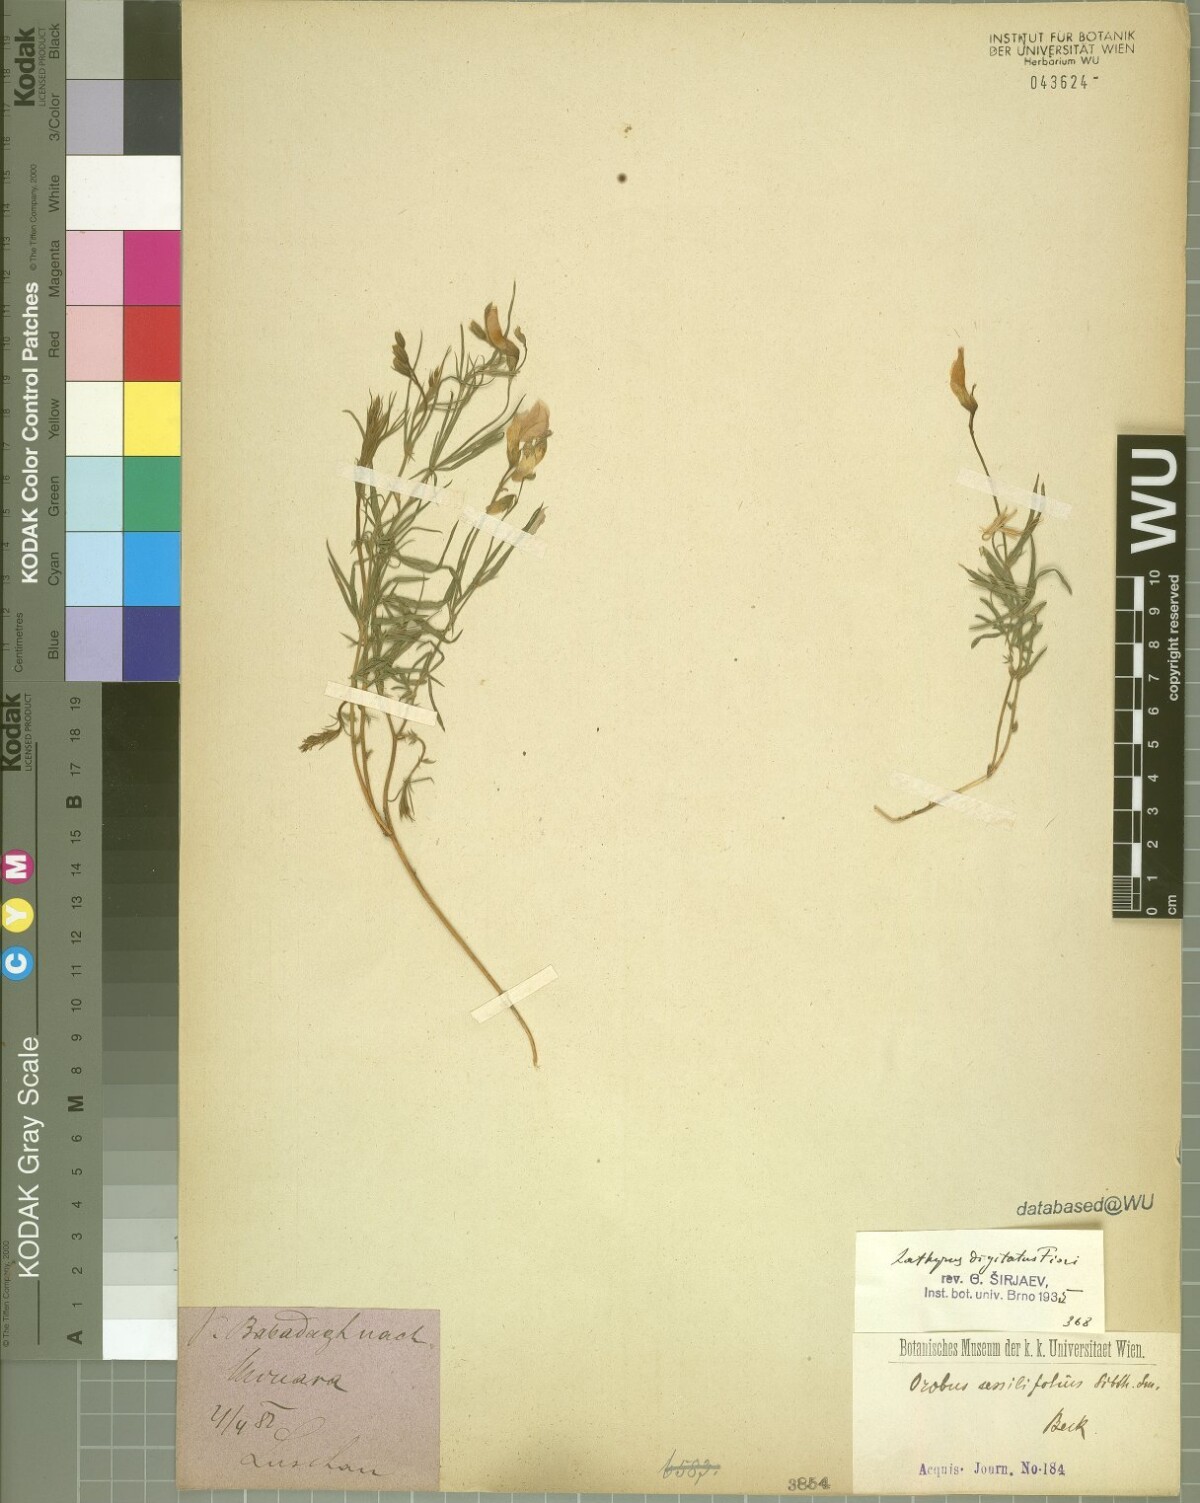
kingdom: Plantae
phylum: Tracheophyta
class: Magnoliopsida
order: Fabales
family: Fabaceae
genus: Lathyrus
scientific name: Lathyrus digitatus
